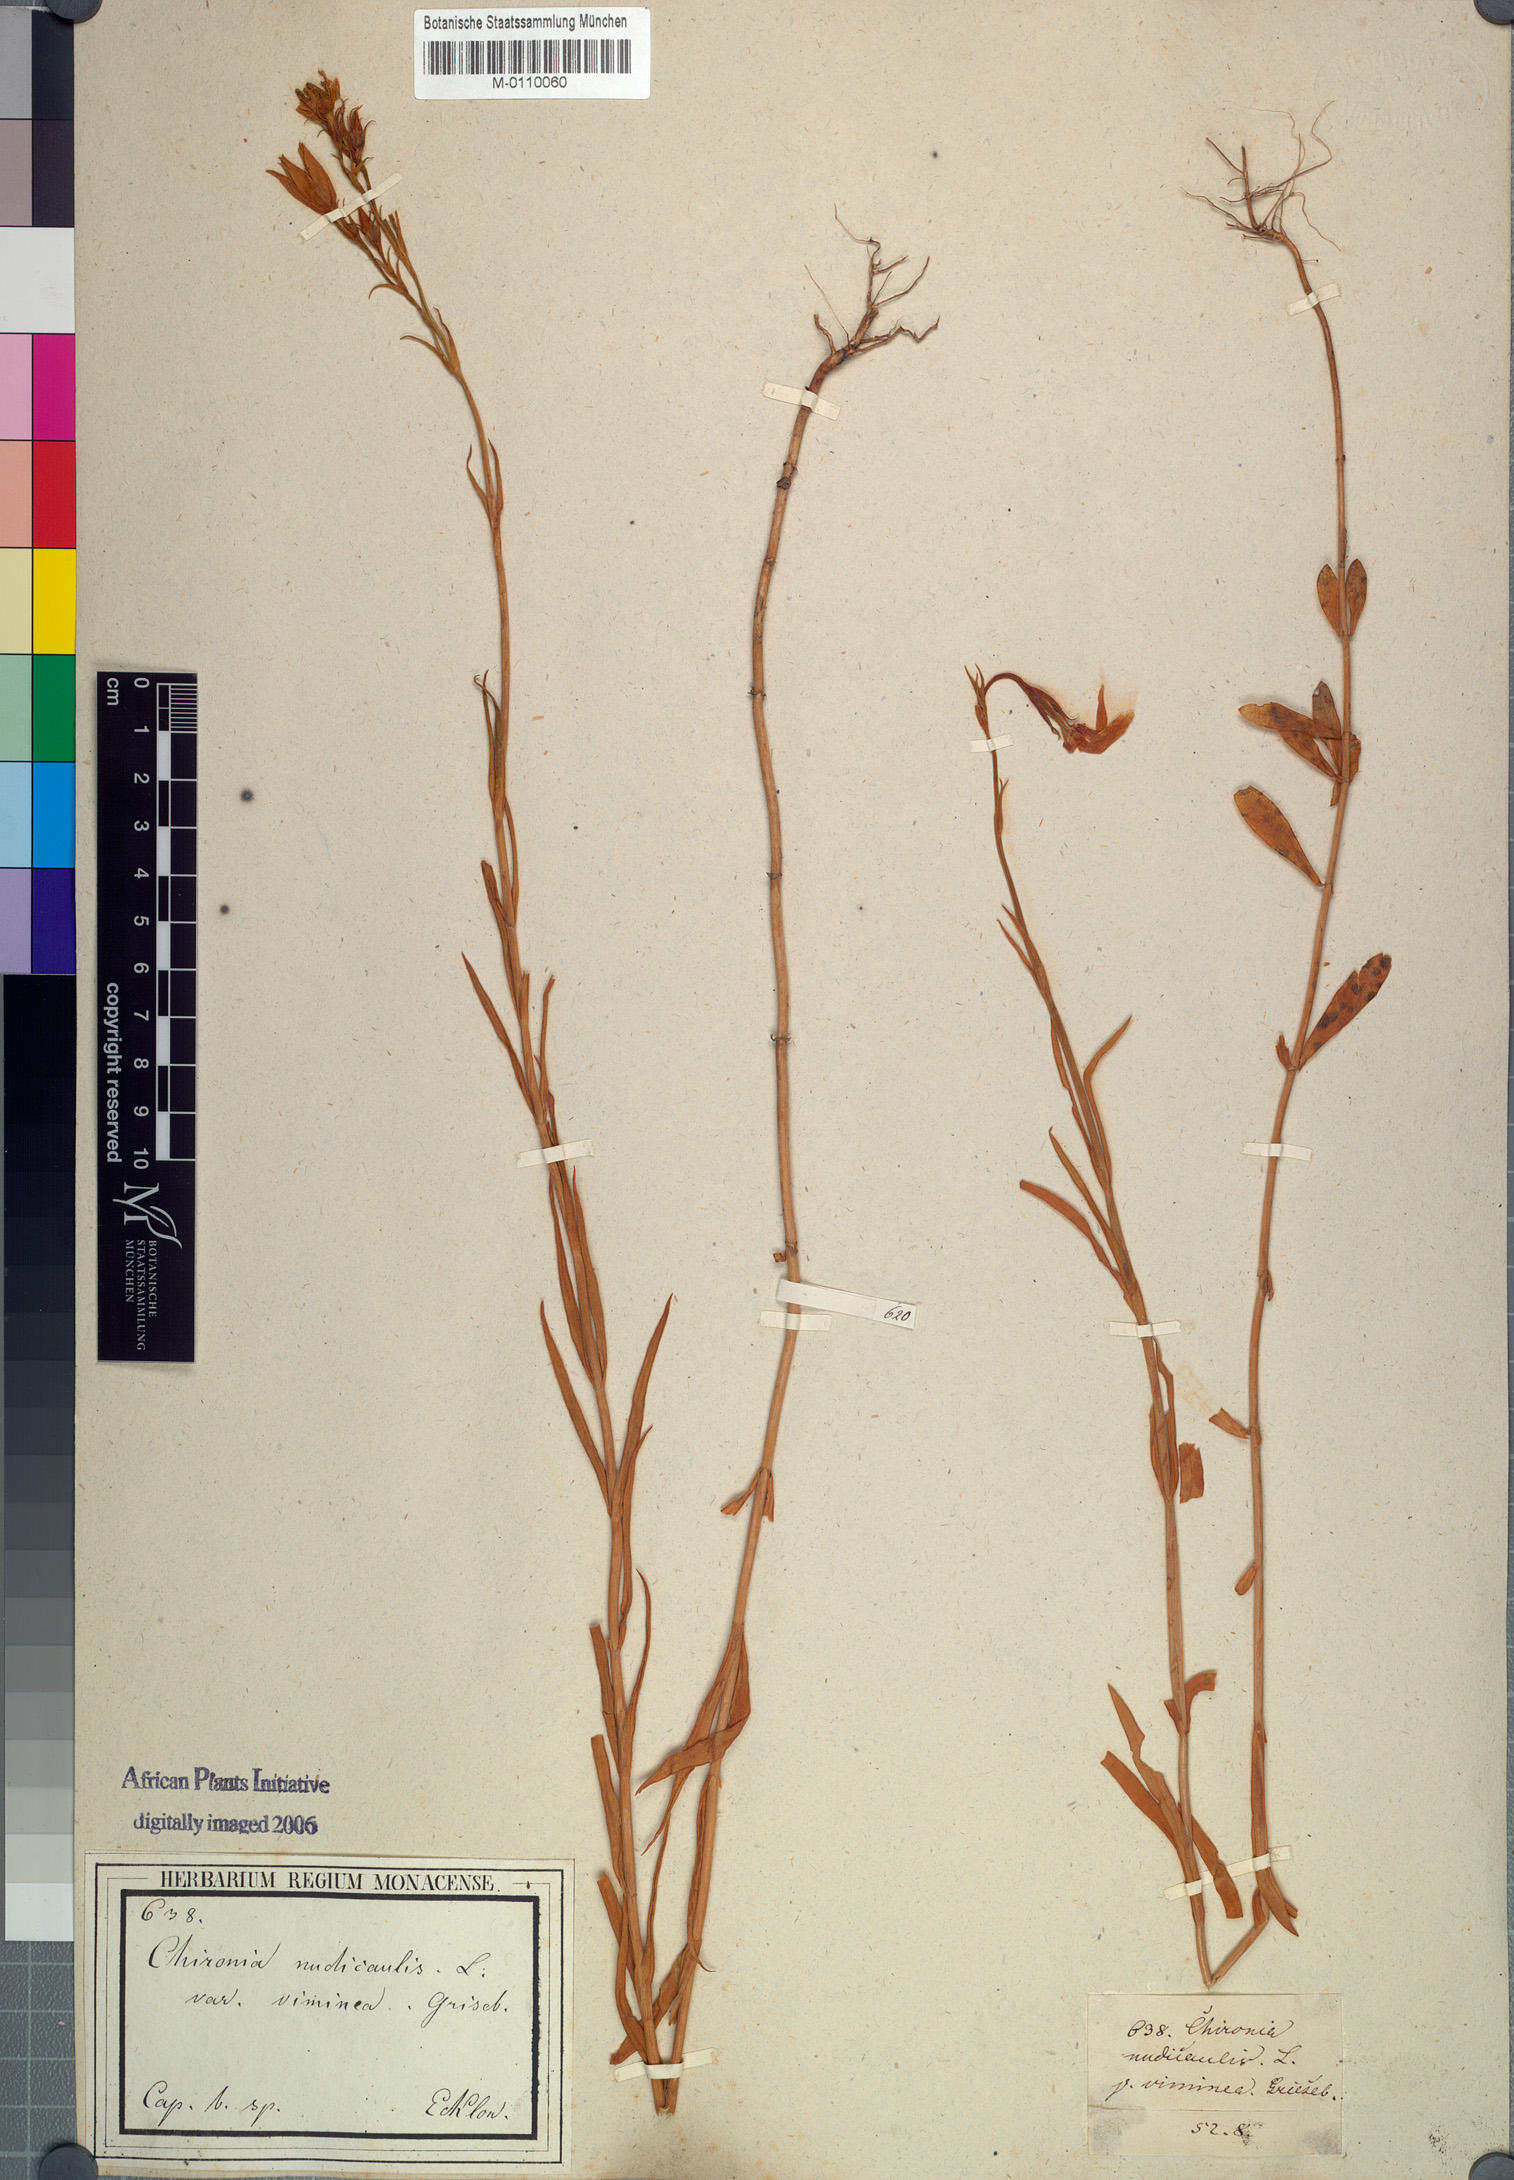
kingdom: Plantae
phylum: Tracheophyta
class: Magnoliopsida
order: Gentianales
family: Gentianaceae
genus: Chironia
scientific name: Chironia jasminoides
